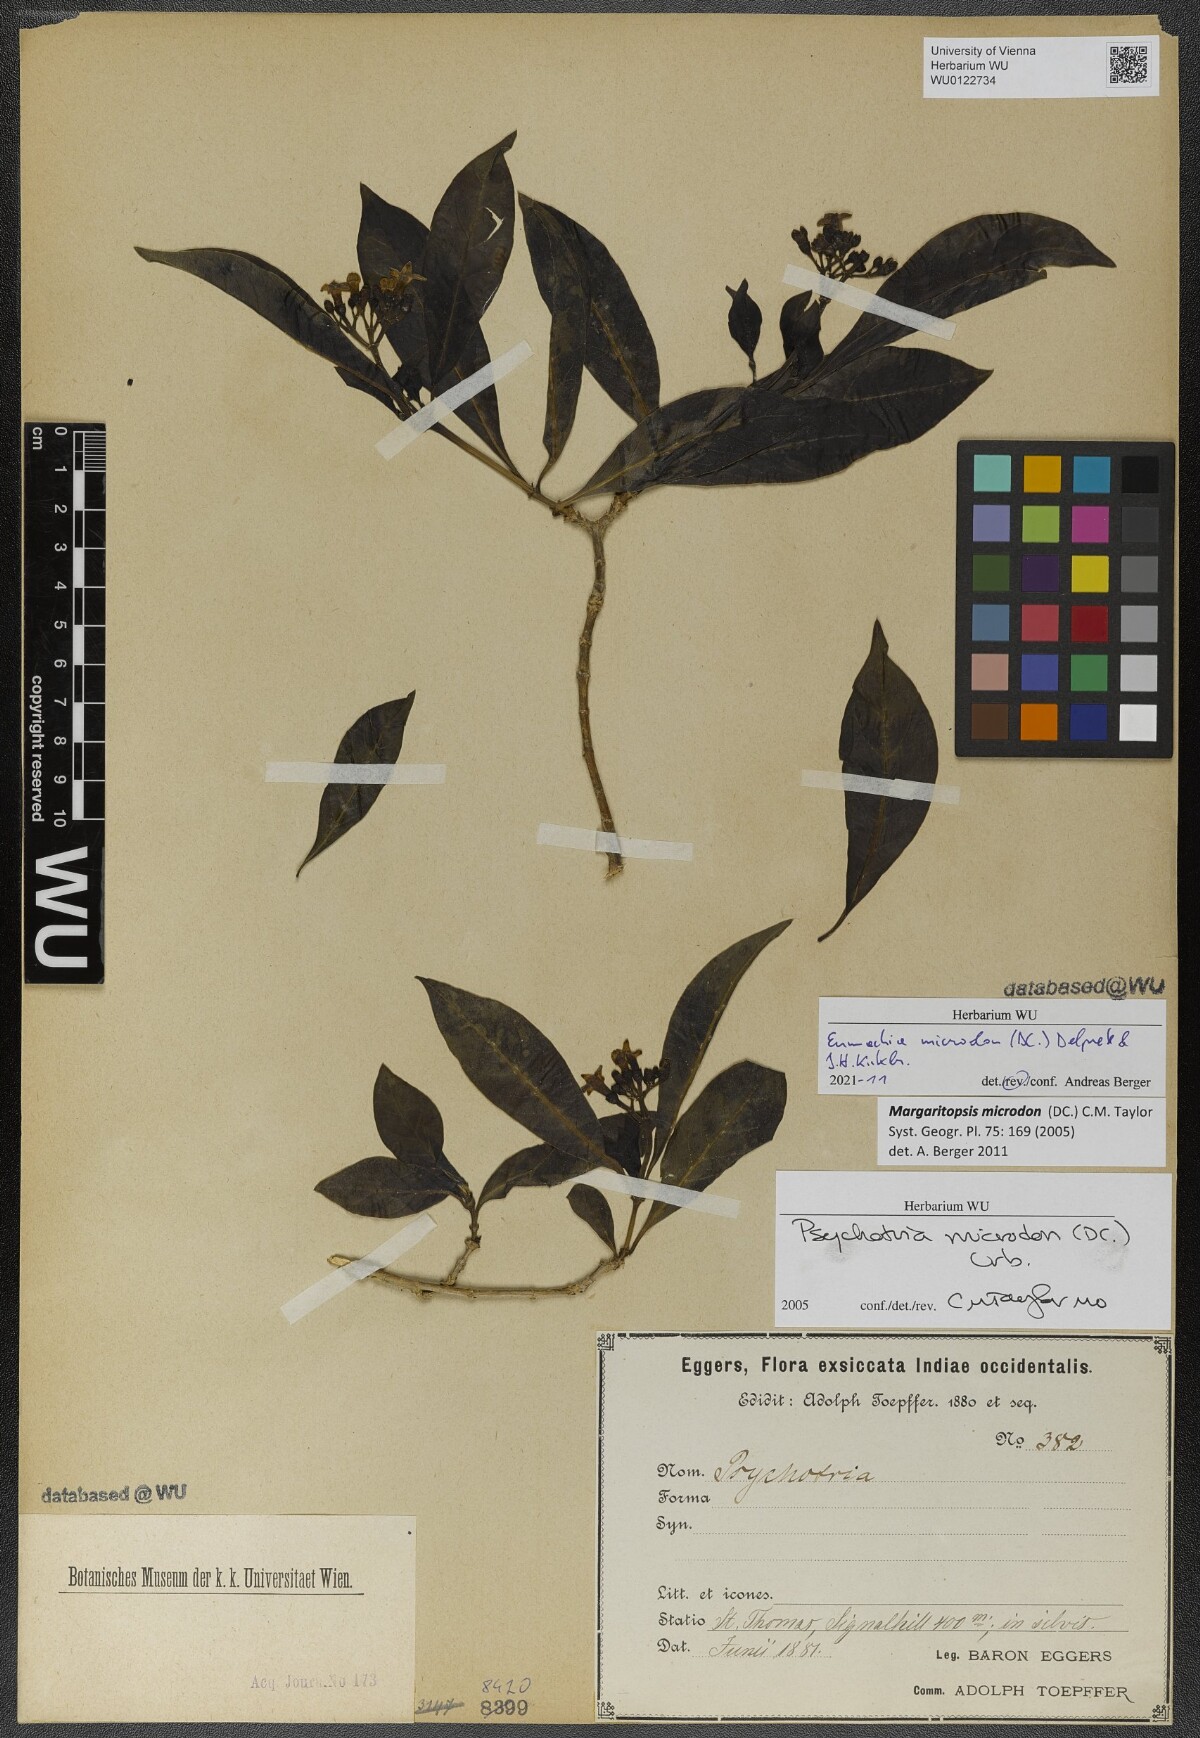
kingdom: Plantae
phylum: Tracheophyta
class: Magnoliopsida
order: Gentianales
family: Rubiaceae
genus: Eumachia
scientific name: Eumachia microdon
